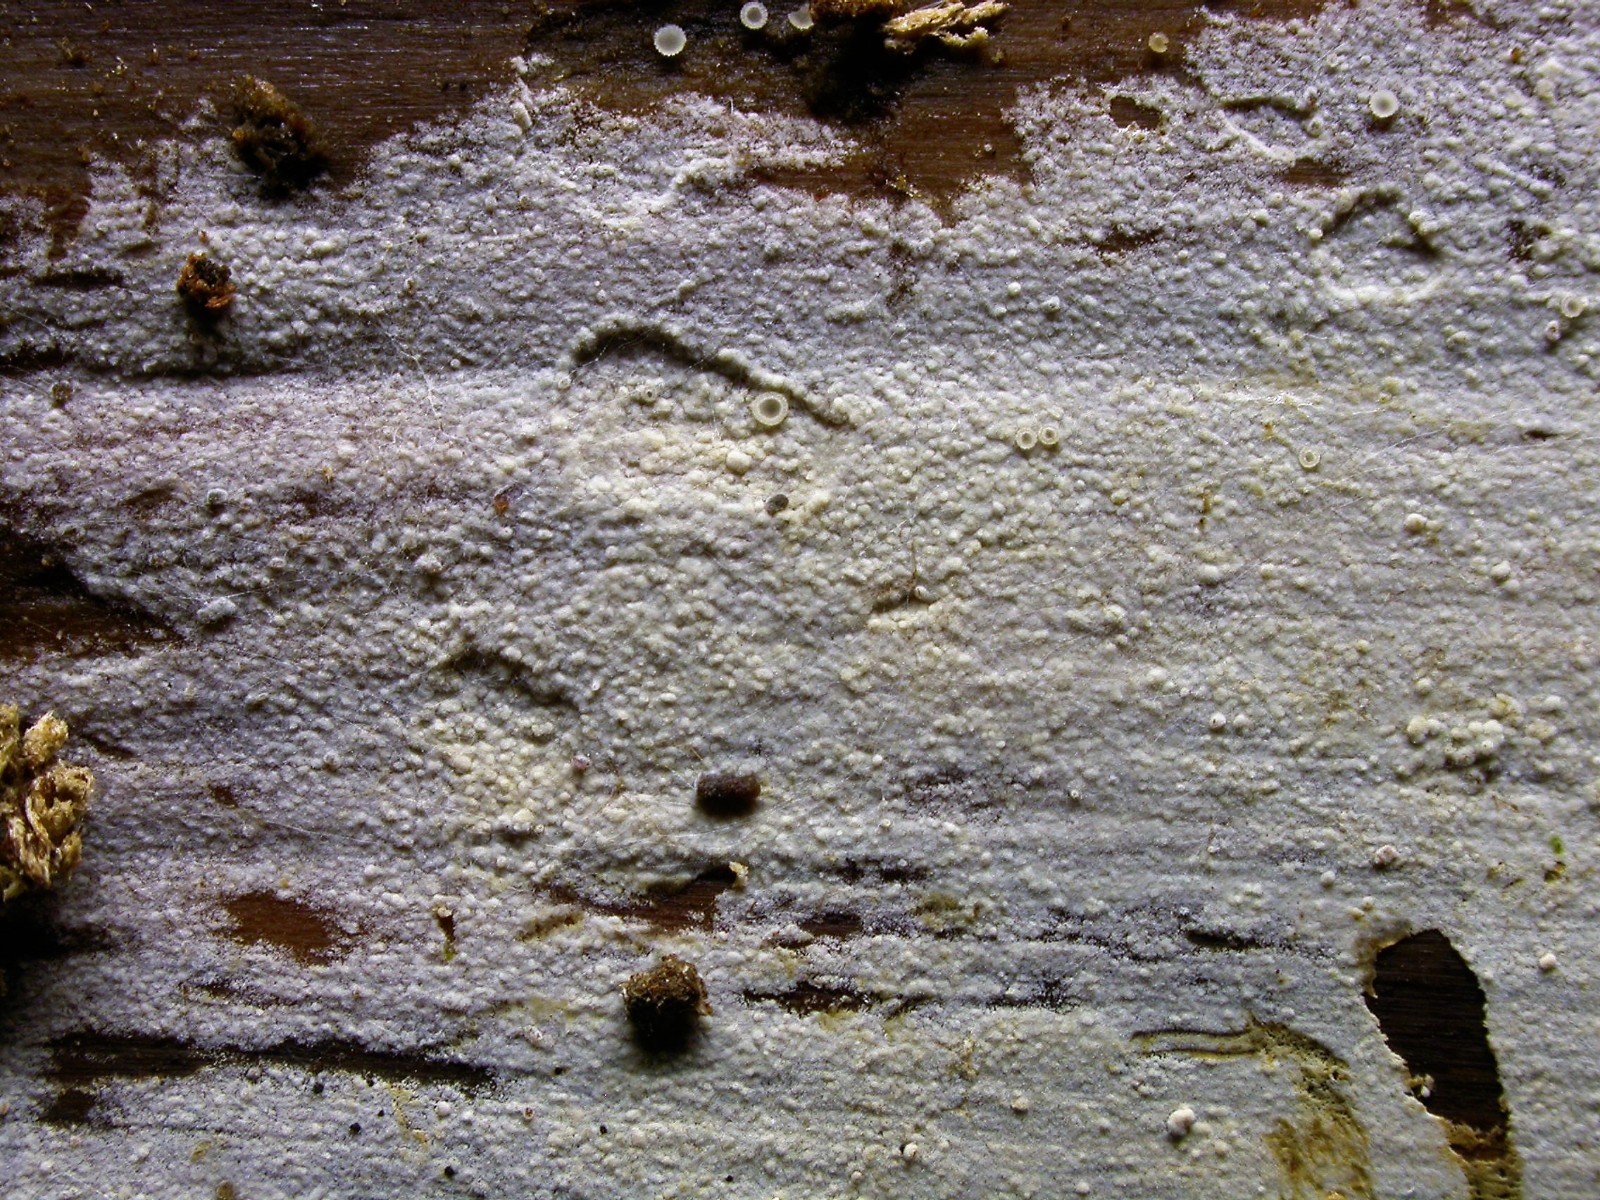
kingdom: Fungi
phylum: Basidiomycota
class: Agaricomycetes
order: Hymenochaetales
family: Hyphodontiaceae
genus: Hyphodontia
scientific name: Hyphodontia pallidula
